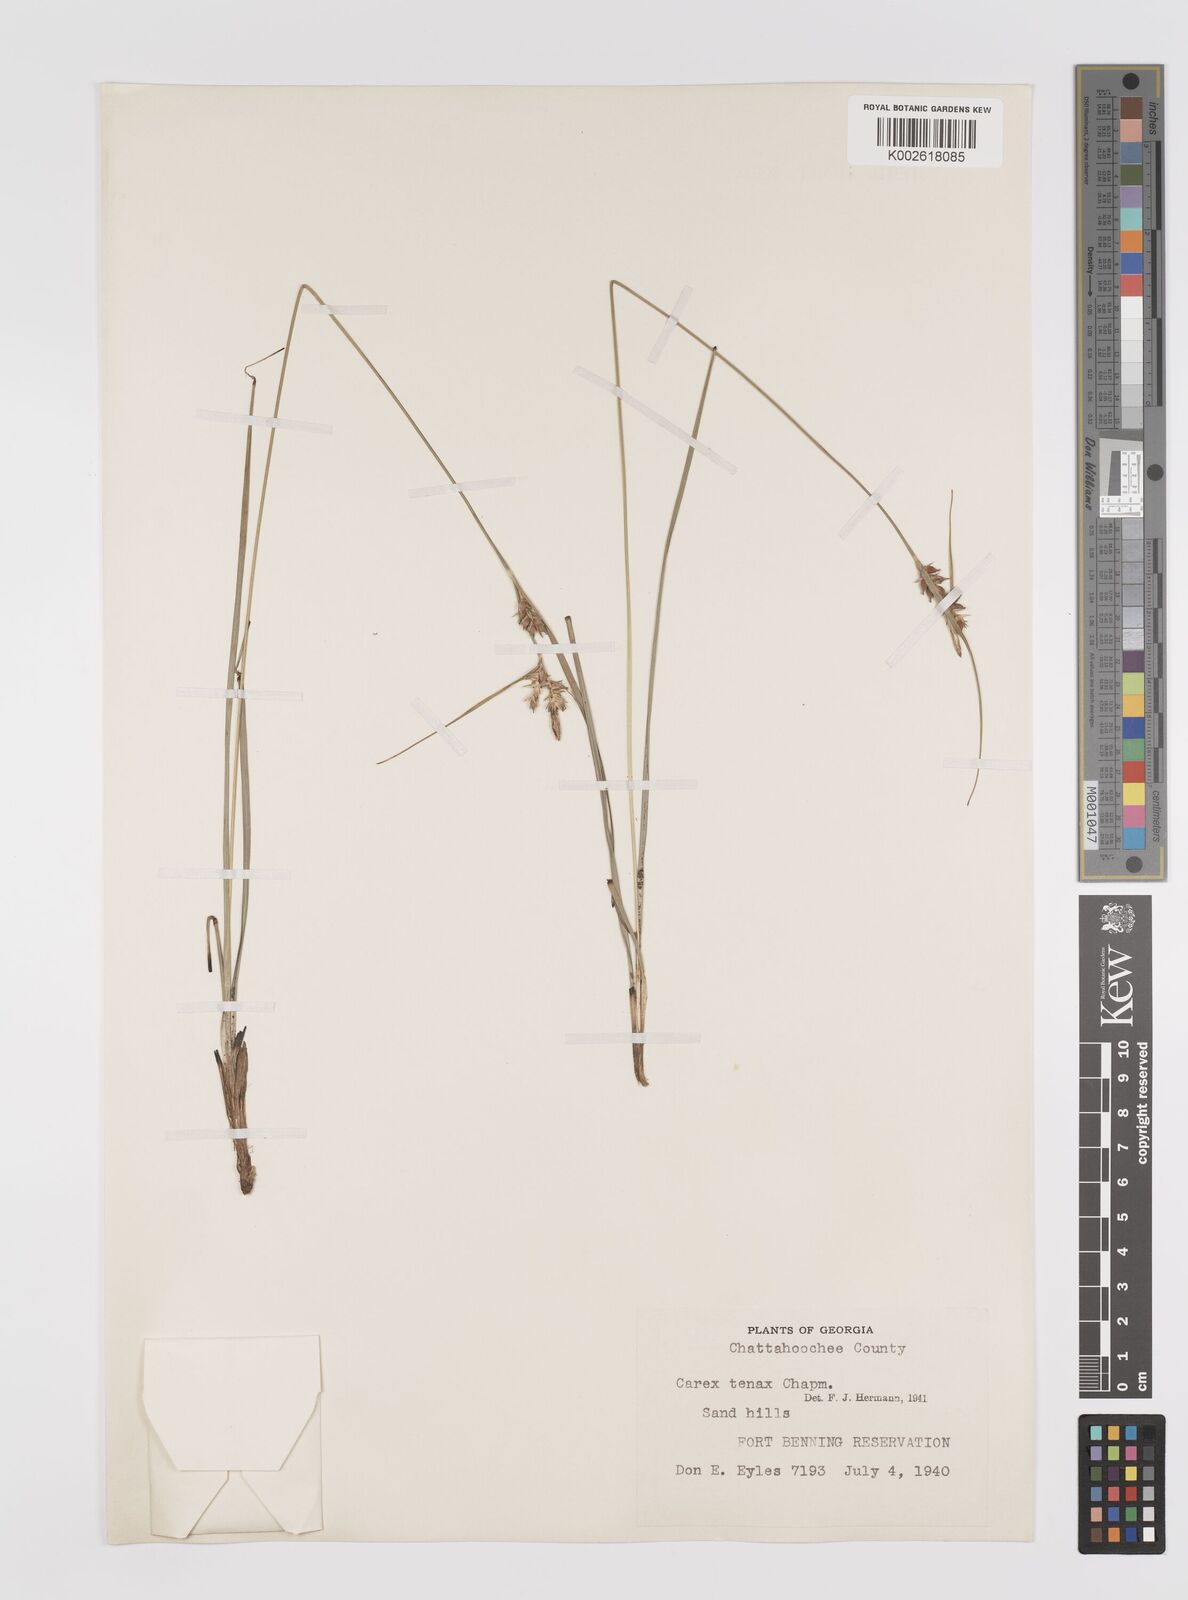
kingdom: Plantae
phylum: Tracheophyta
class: Liliopsida
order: Poales
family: Cyperaceae
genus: Carex
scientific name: Carex tenax
